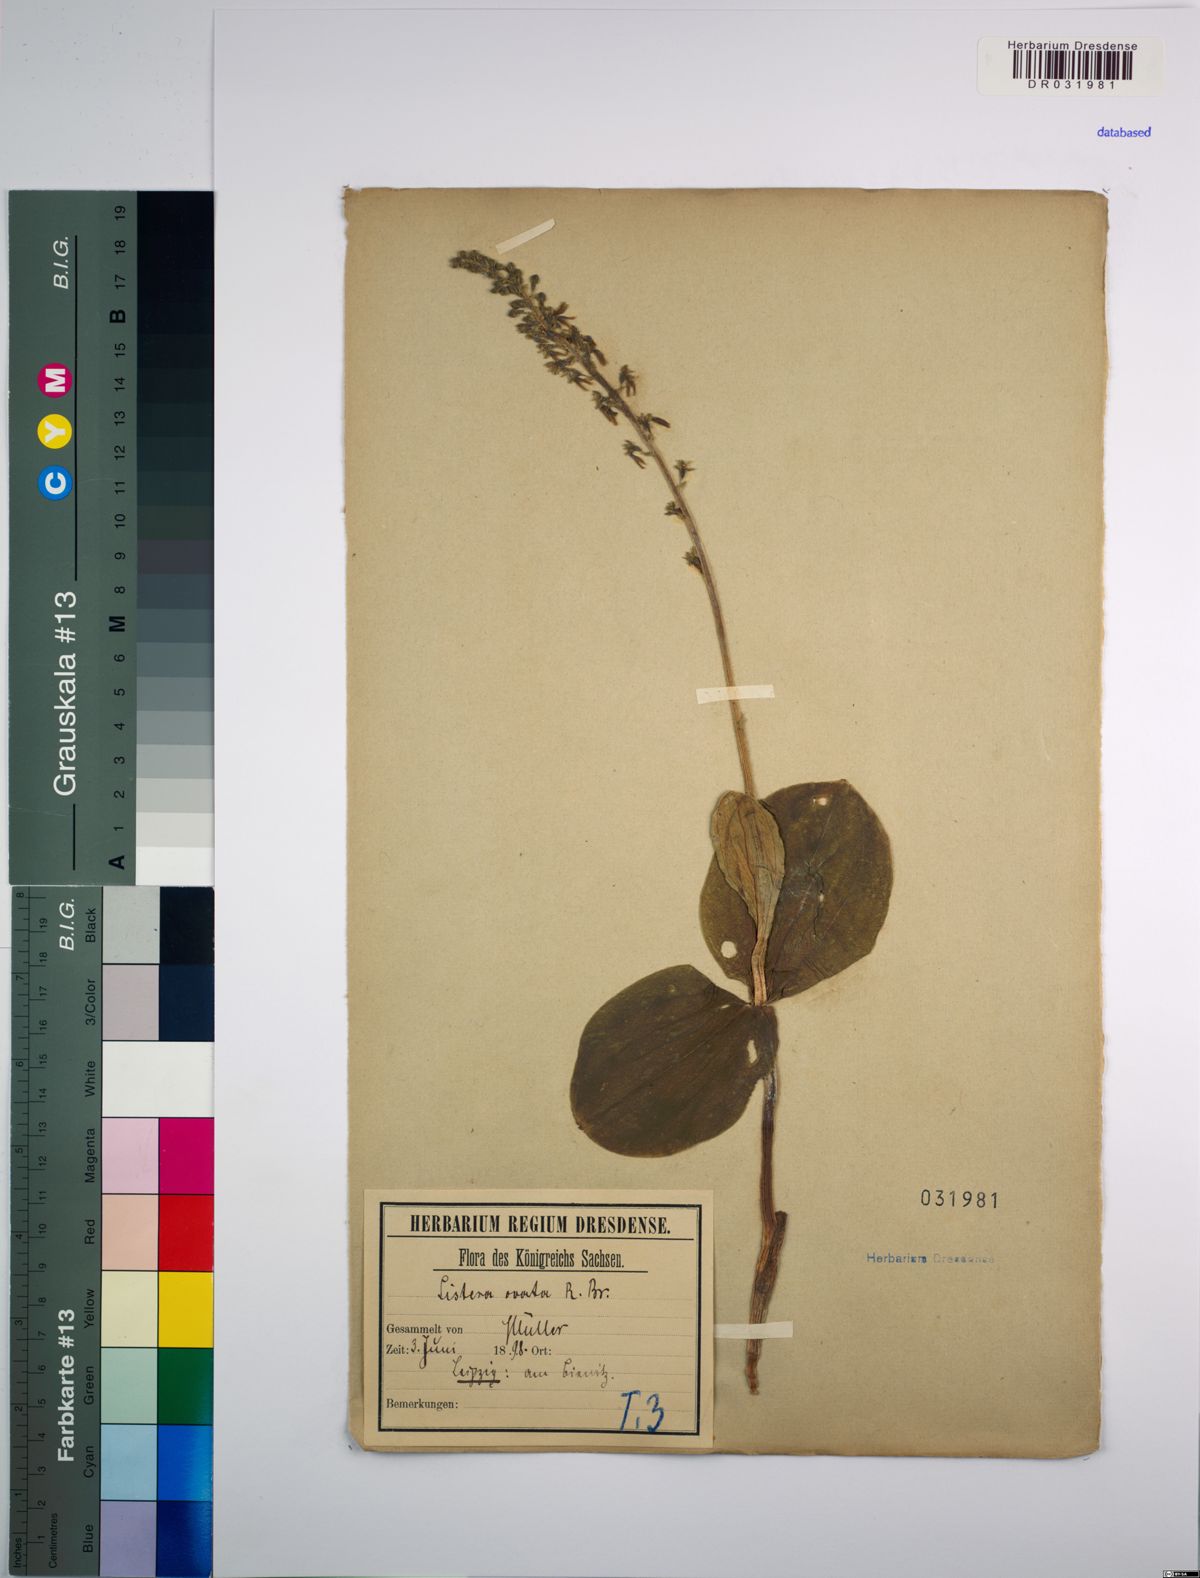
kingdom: Plantae
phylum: Tracheophyta
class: Liliopsida
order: Asparagales
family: Orchidaceae
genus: Neottia
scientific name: Neottia ovata
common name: Common twayblade
